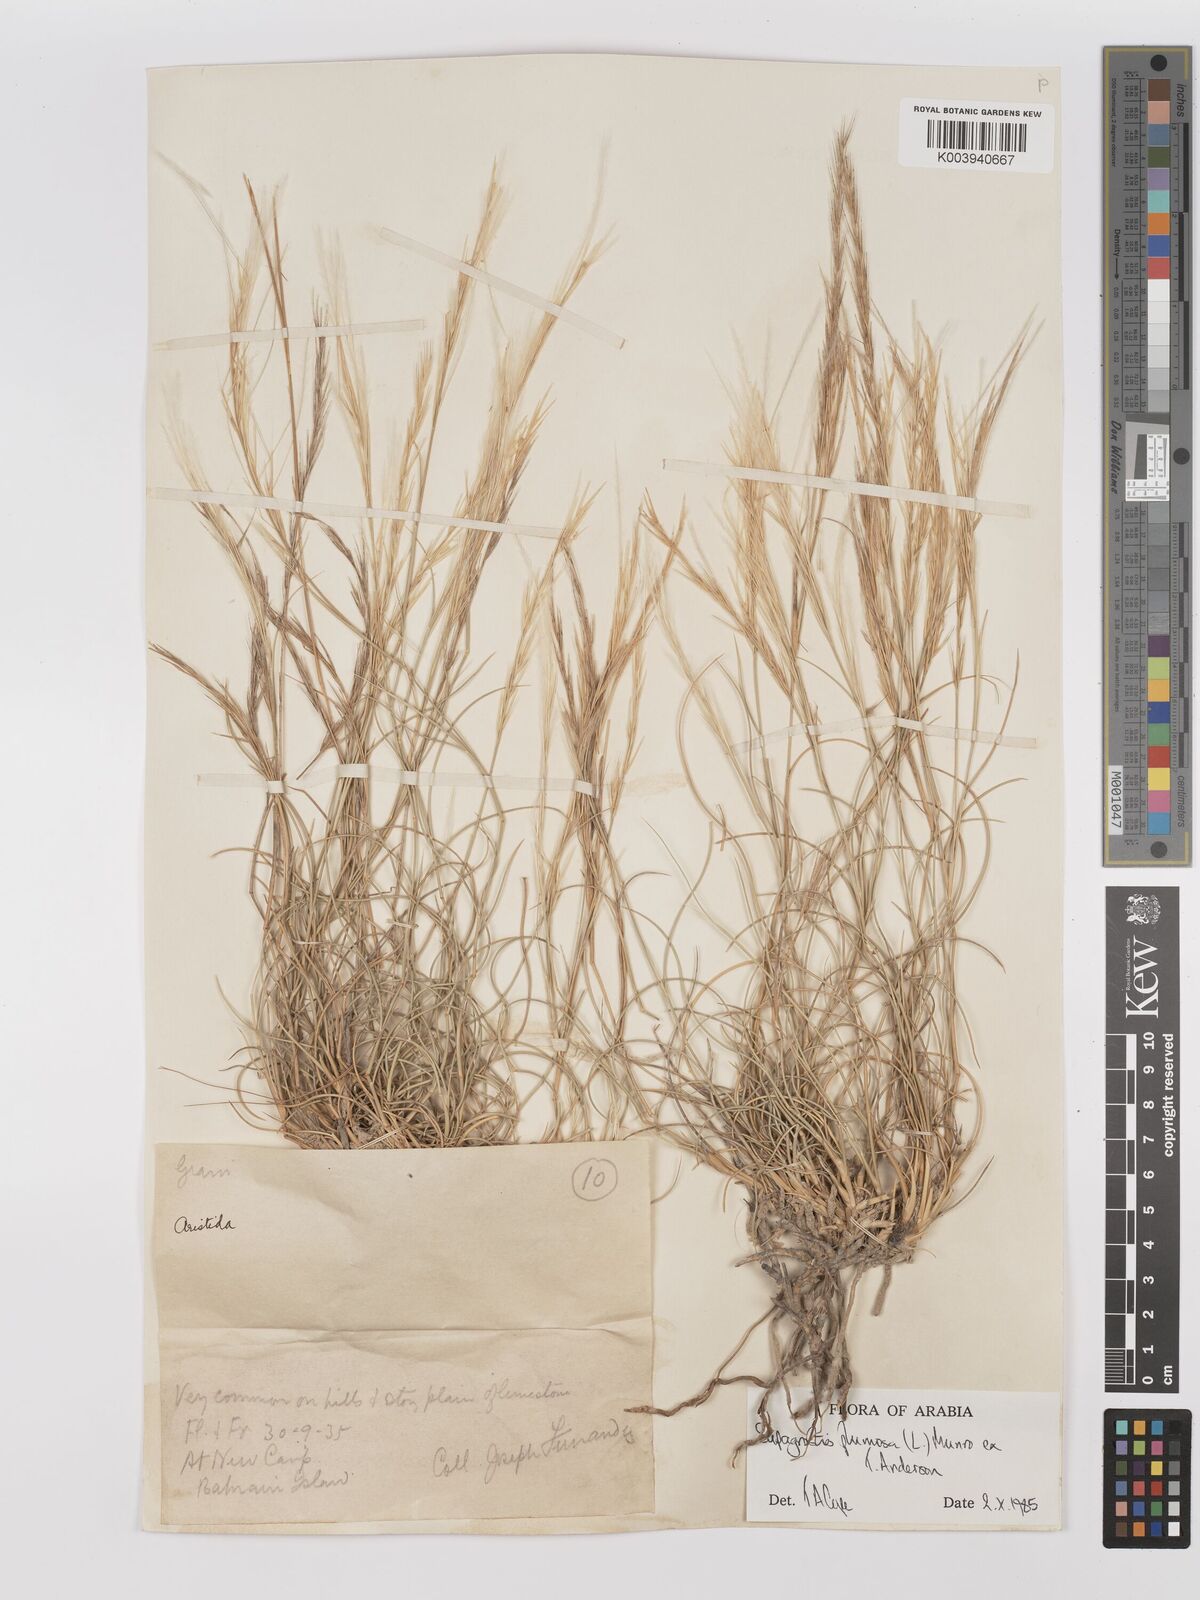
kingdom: Plantae
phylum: Tracheophyta
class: Liliopsida
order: Poales
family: Poaceae
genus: Stipagrostis
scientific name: Stipagrostis plumosa
